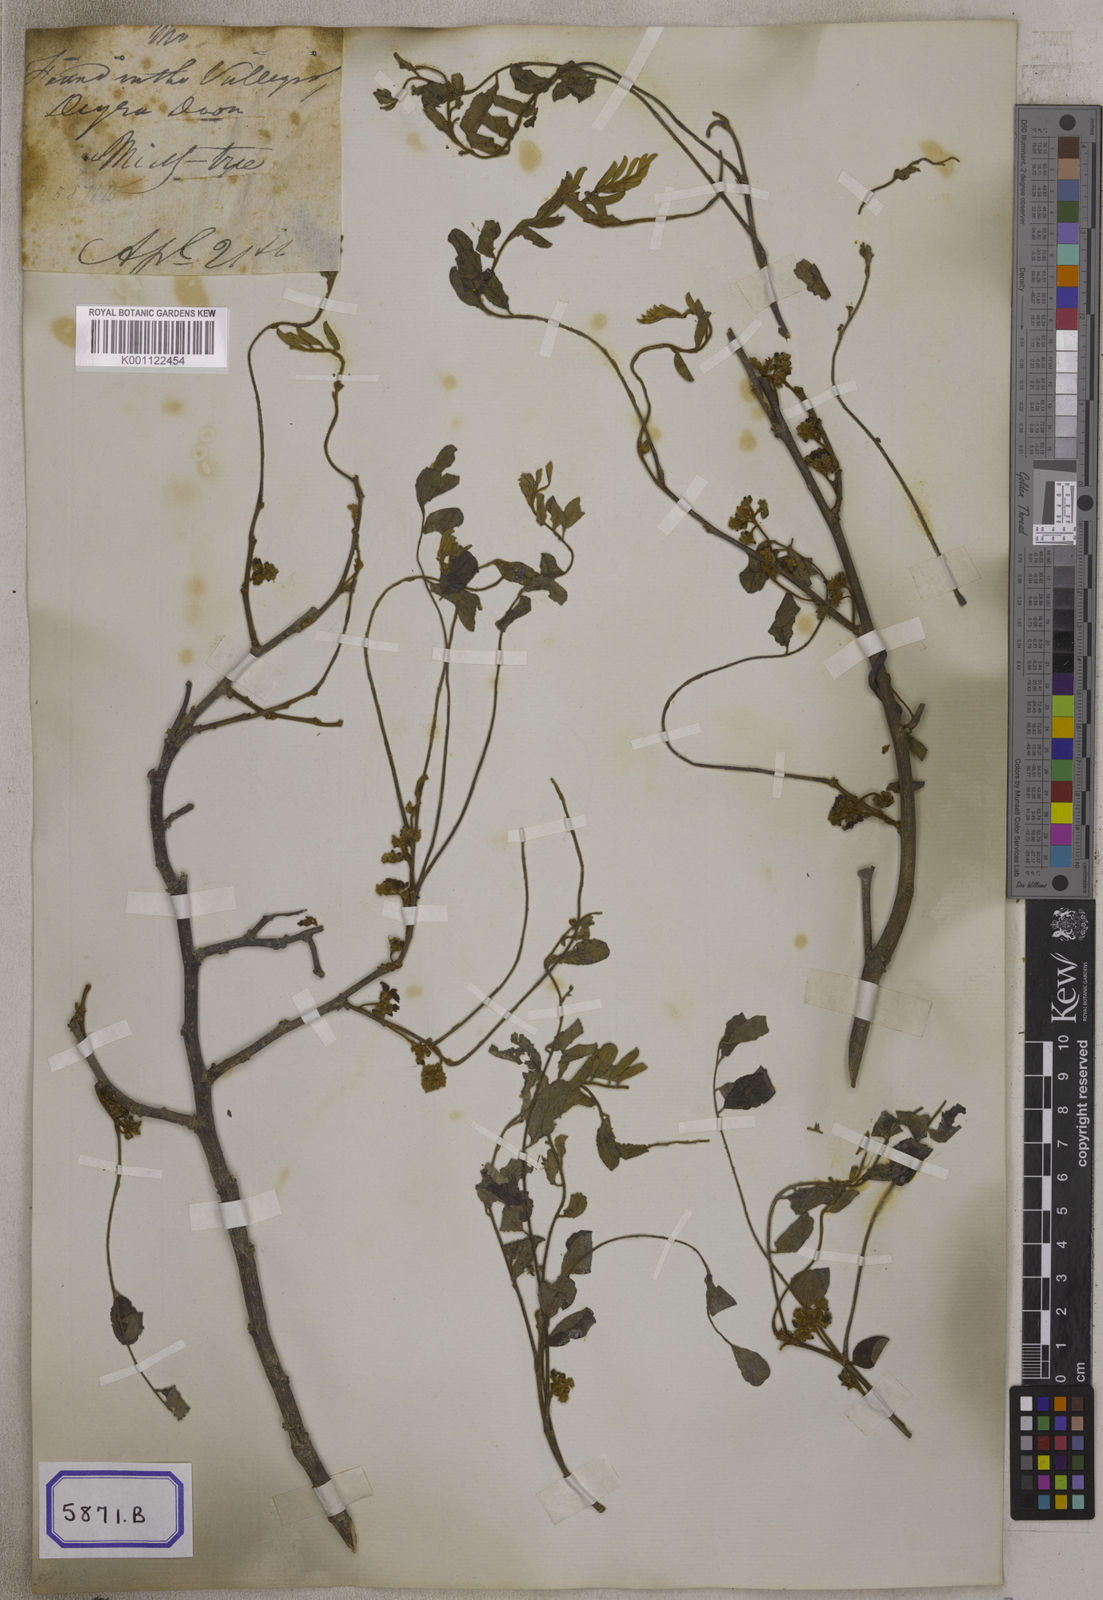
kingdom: Plantae
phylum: Tracheophyta
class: Magnoliopsida
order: Fabales
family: Fabaceae
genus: Dalbergia
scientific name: Dalbergia
